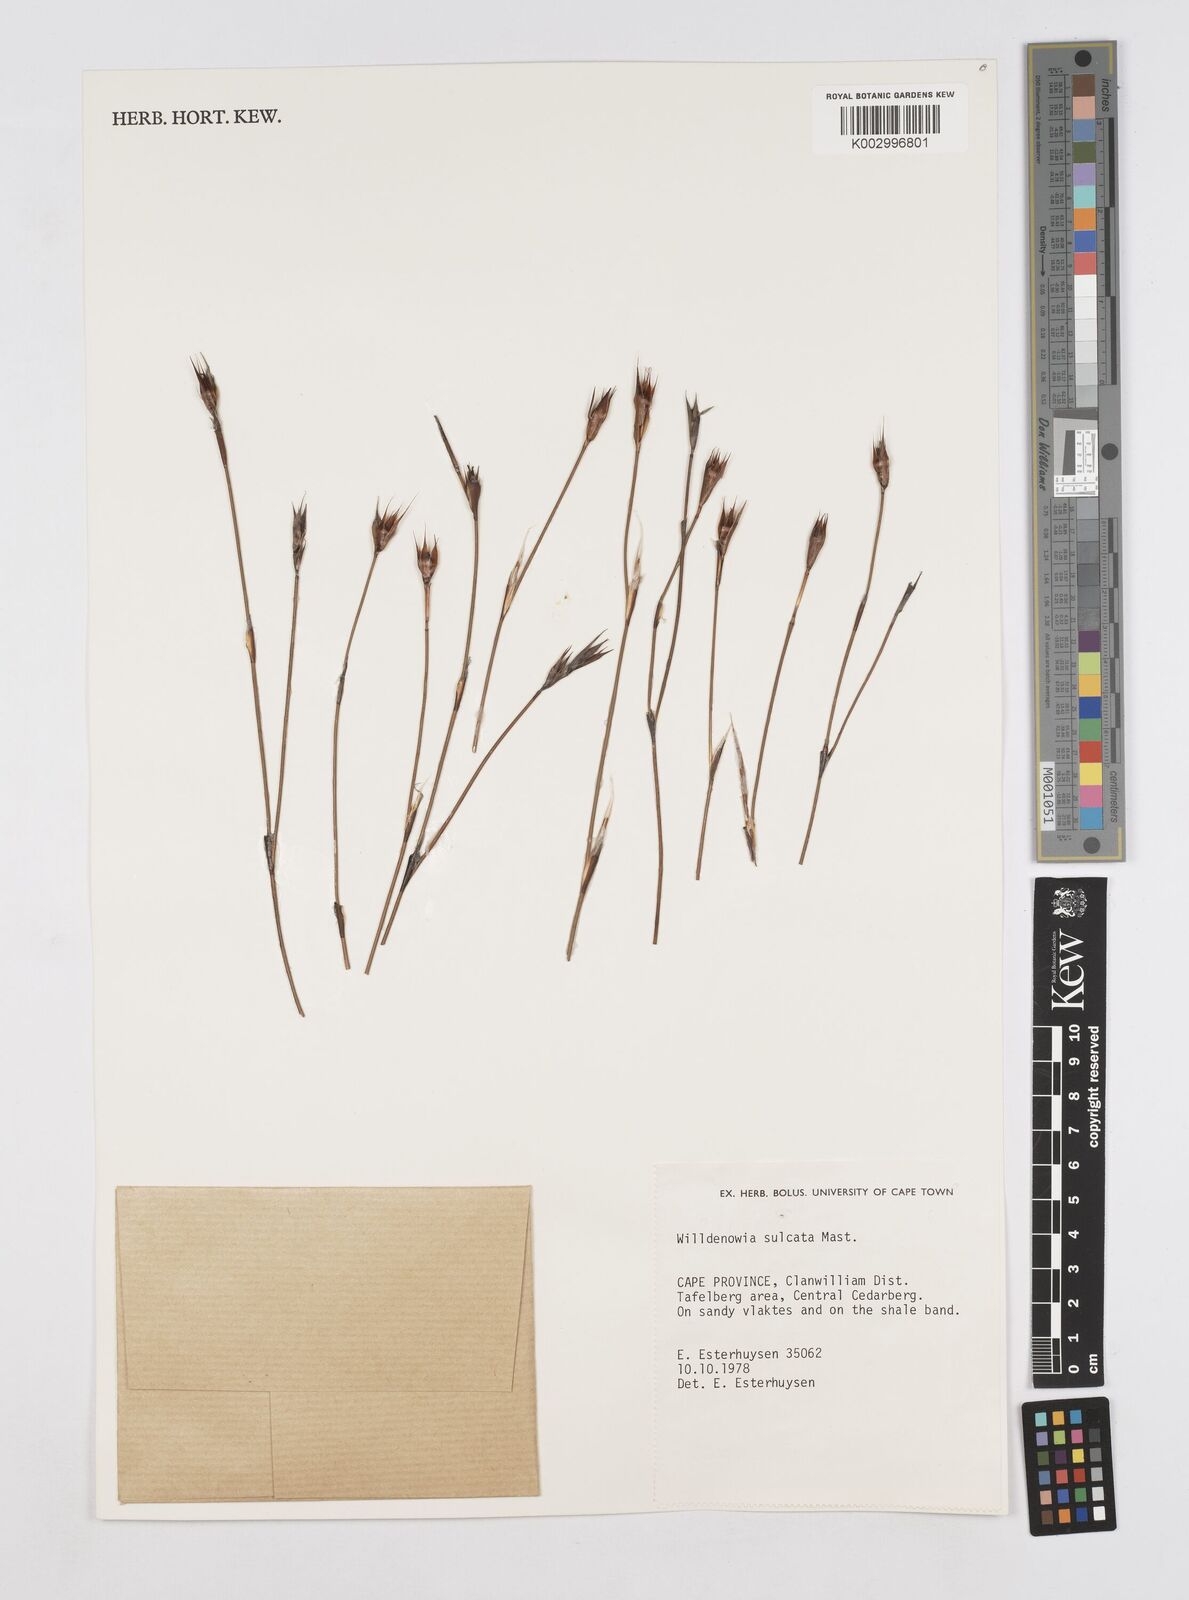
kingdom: Plantae
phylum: Tracheophyta
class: Liliopsida
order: Poales
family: Restionaceae
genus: Willdenowia
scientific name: Willdenowia sulcata
